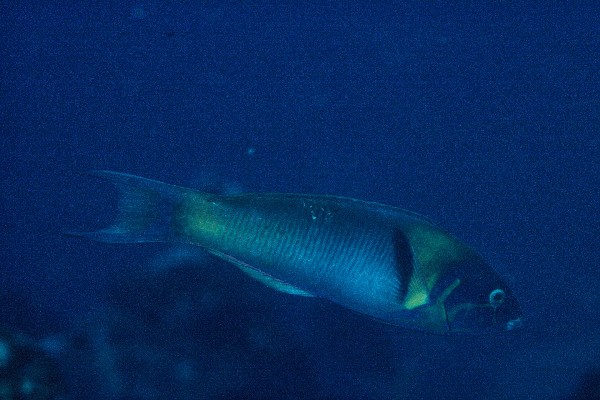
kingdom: Animalia
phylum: Chordata
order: Perciformes
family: Labridae
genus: Thalassoma
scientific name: Thalassoma genivittatum
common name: Red-cheek wrasse
